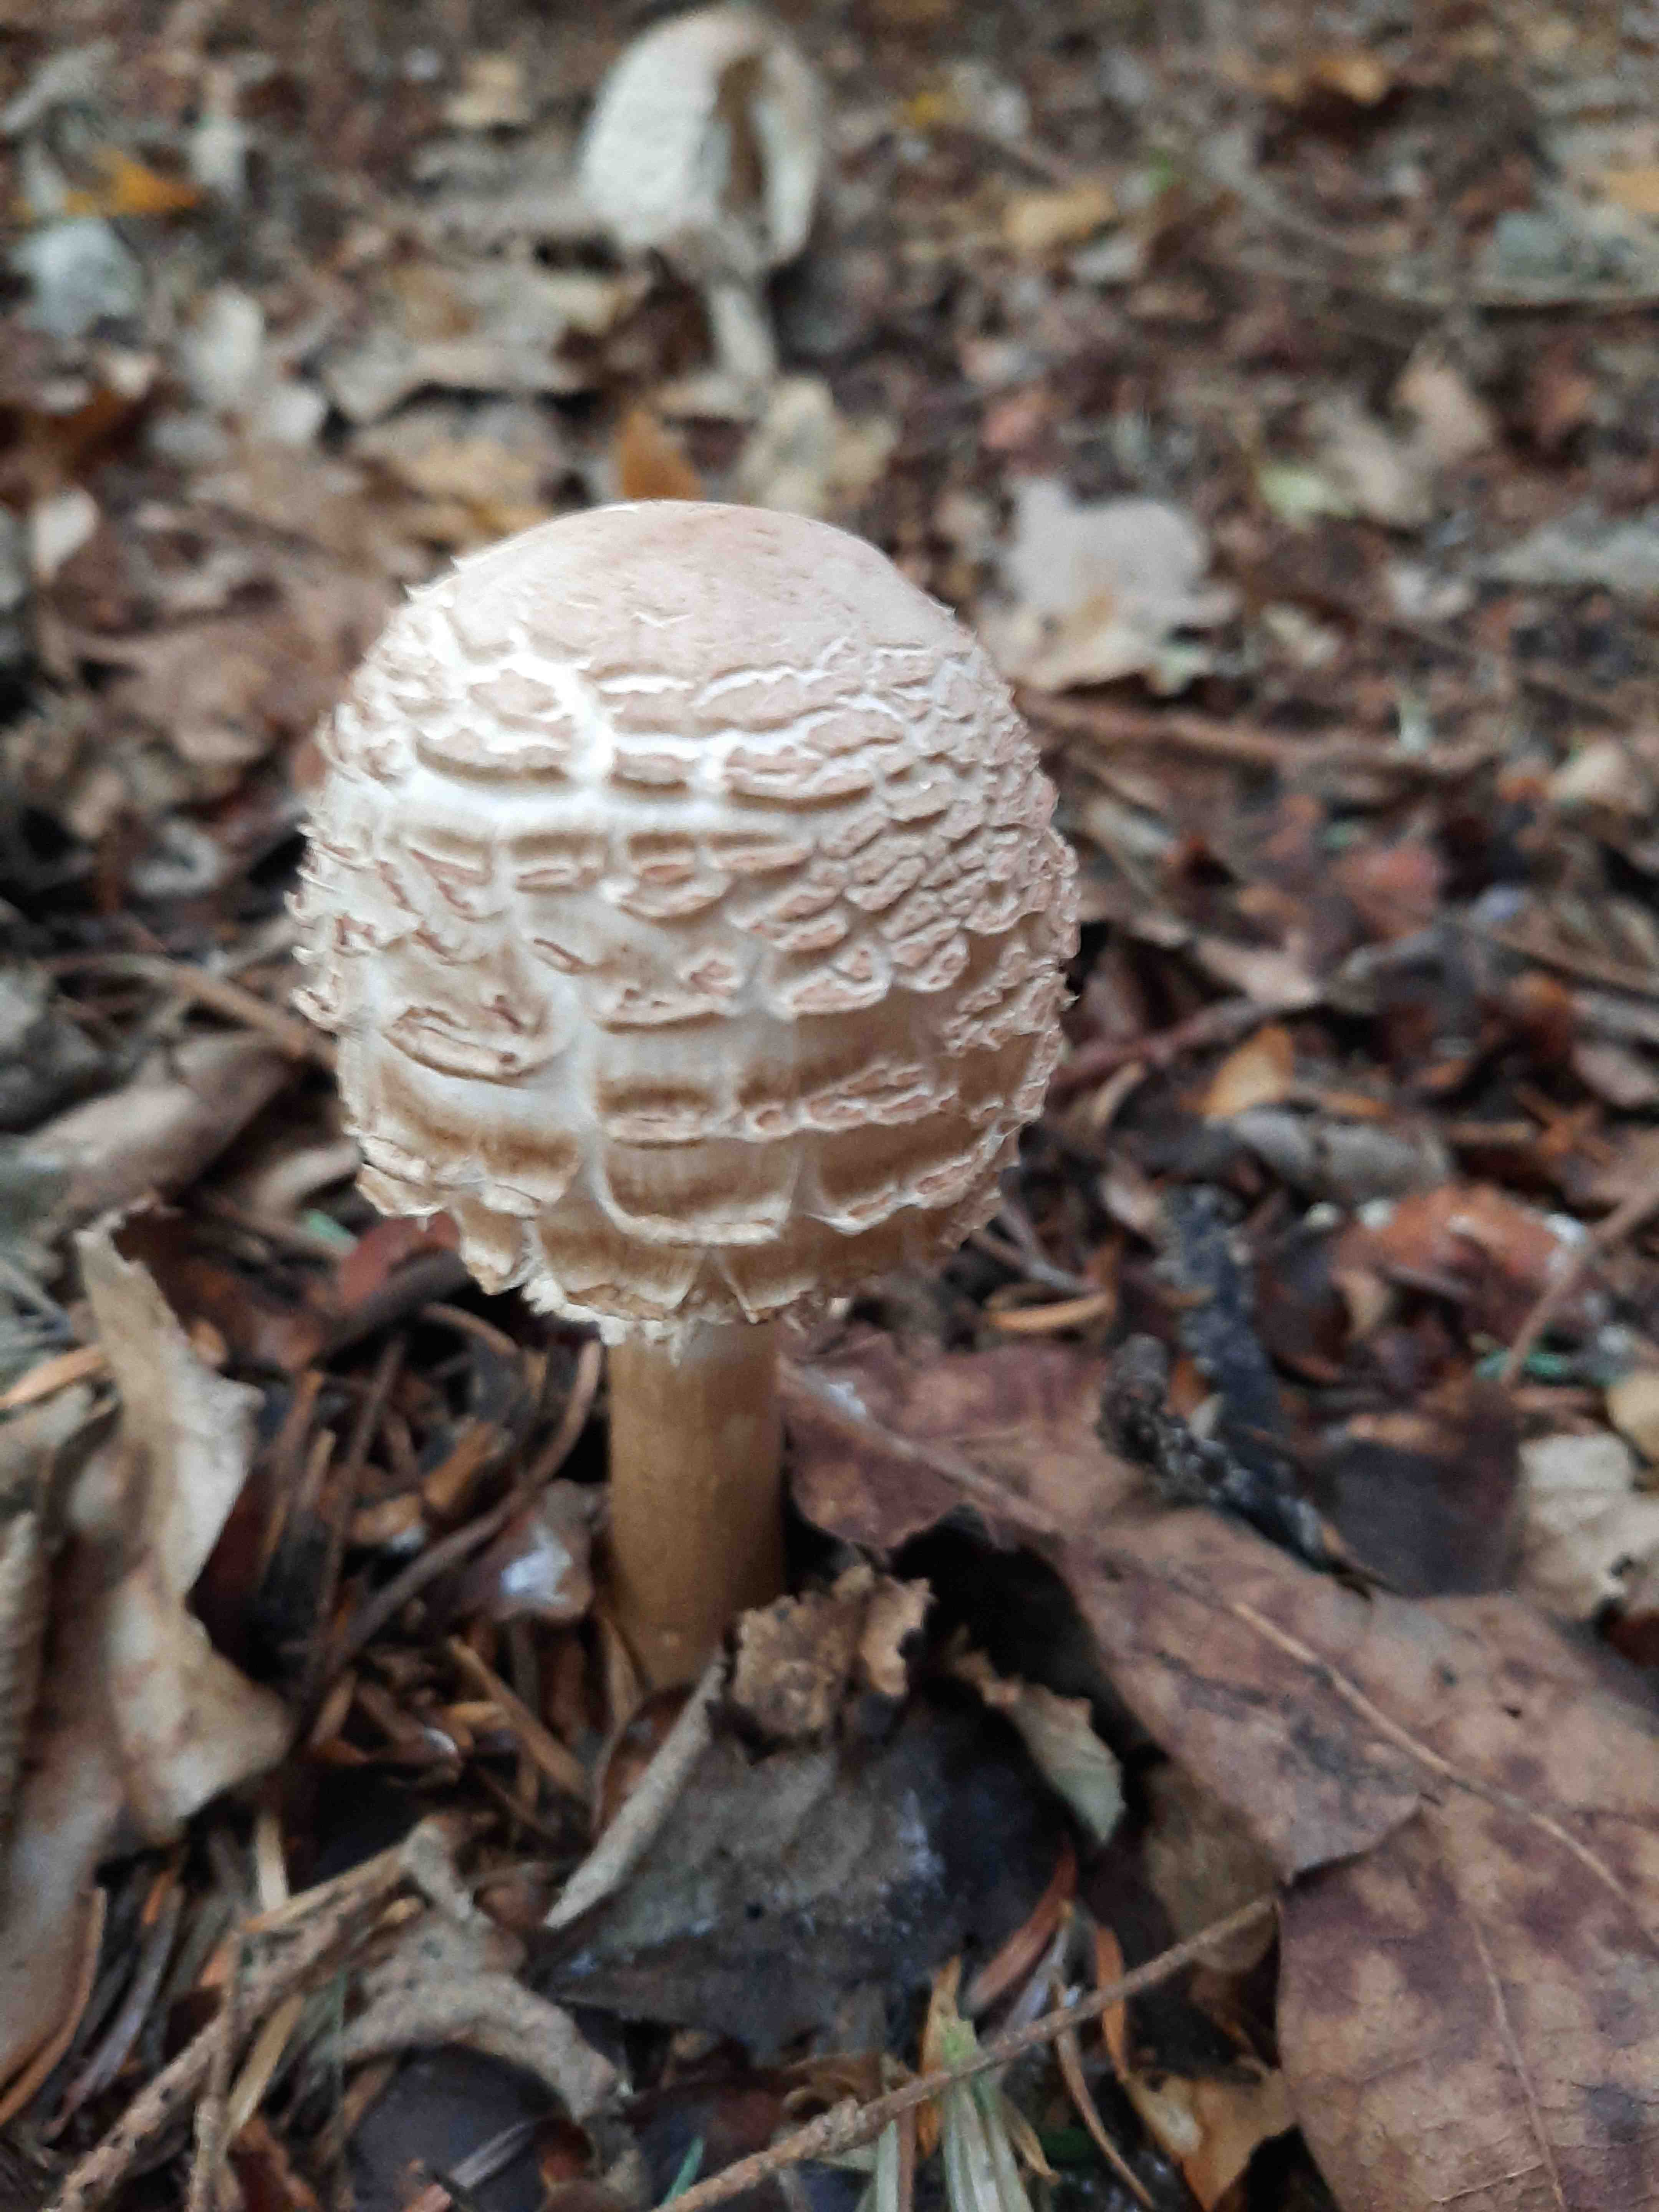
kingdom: Fungi
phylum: Basidiomycota
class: Agaricomycetes
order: Agaricales
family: Agaricaceae
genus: Chlorophyllum
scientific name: Chlorophyllum olivieri
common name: almindelig rabarberhat
